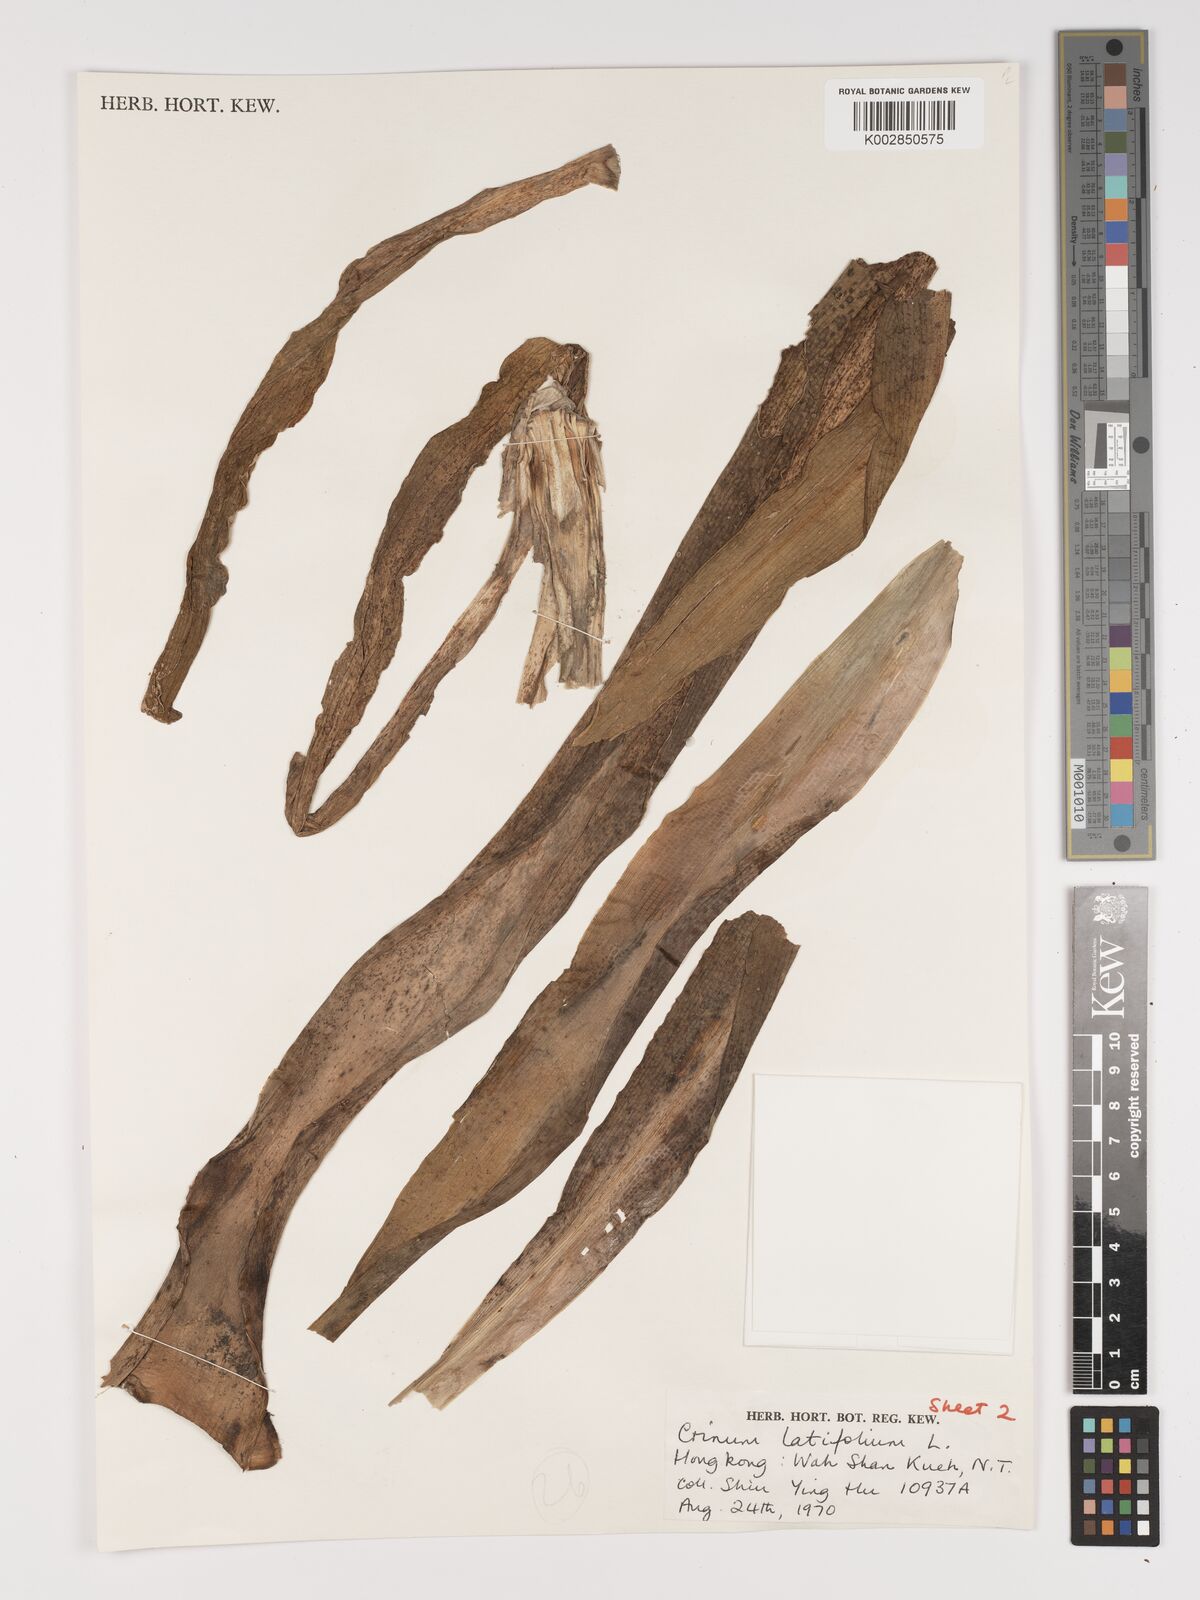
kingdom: Plantae
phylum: Tracheophyta
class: Liliopsida
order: Asparagales
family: Amaryllidaceae
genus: Crinum
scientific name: Crinum latifolium
